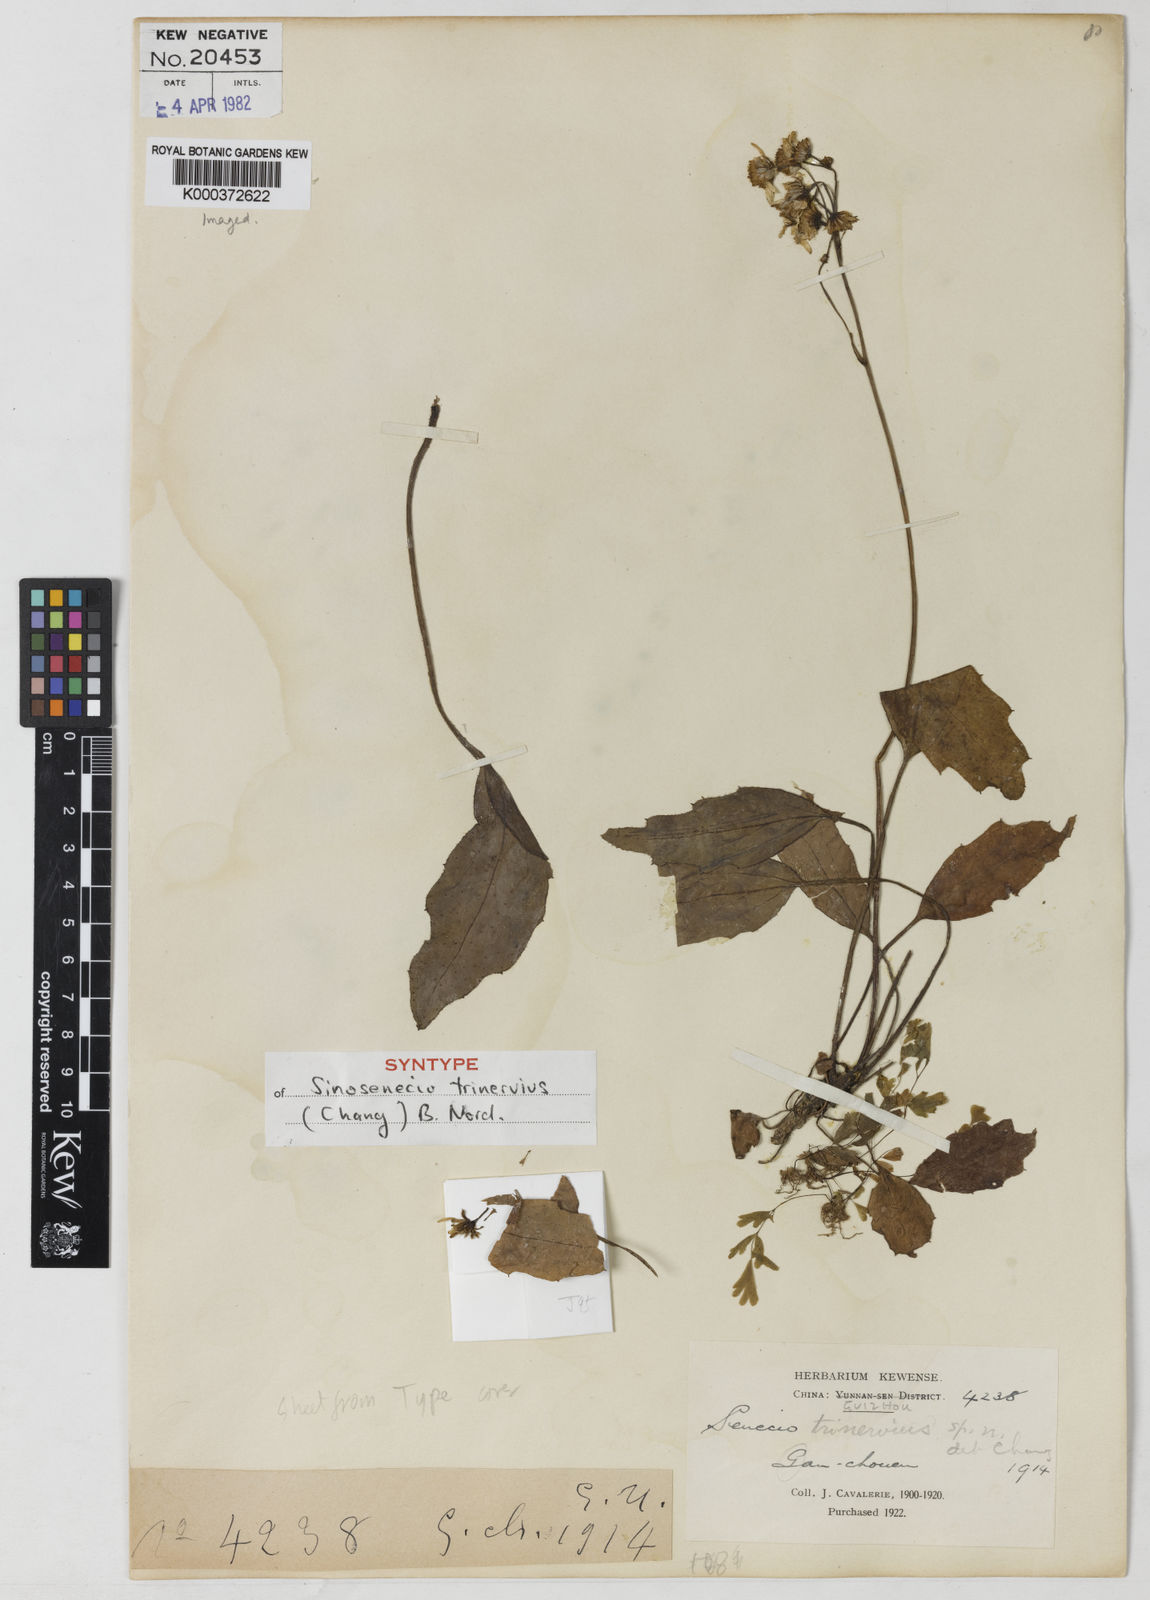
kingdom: Plantae
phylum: Tracheophyta
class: Magnoliopsida
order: Asterales
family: Asteraceae
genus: Sinosenecio
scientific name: Sinosenecio trinervius
